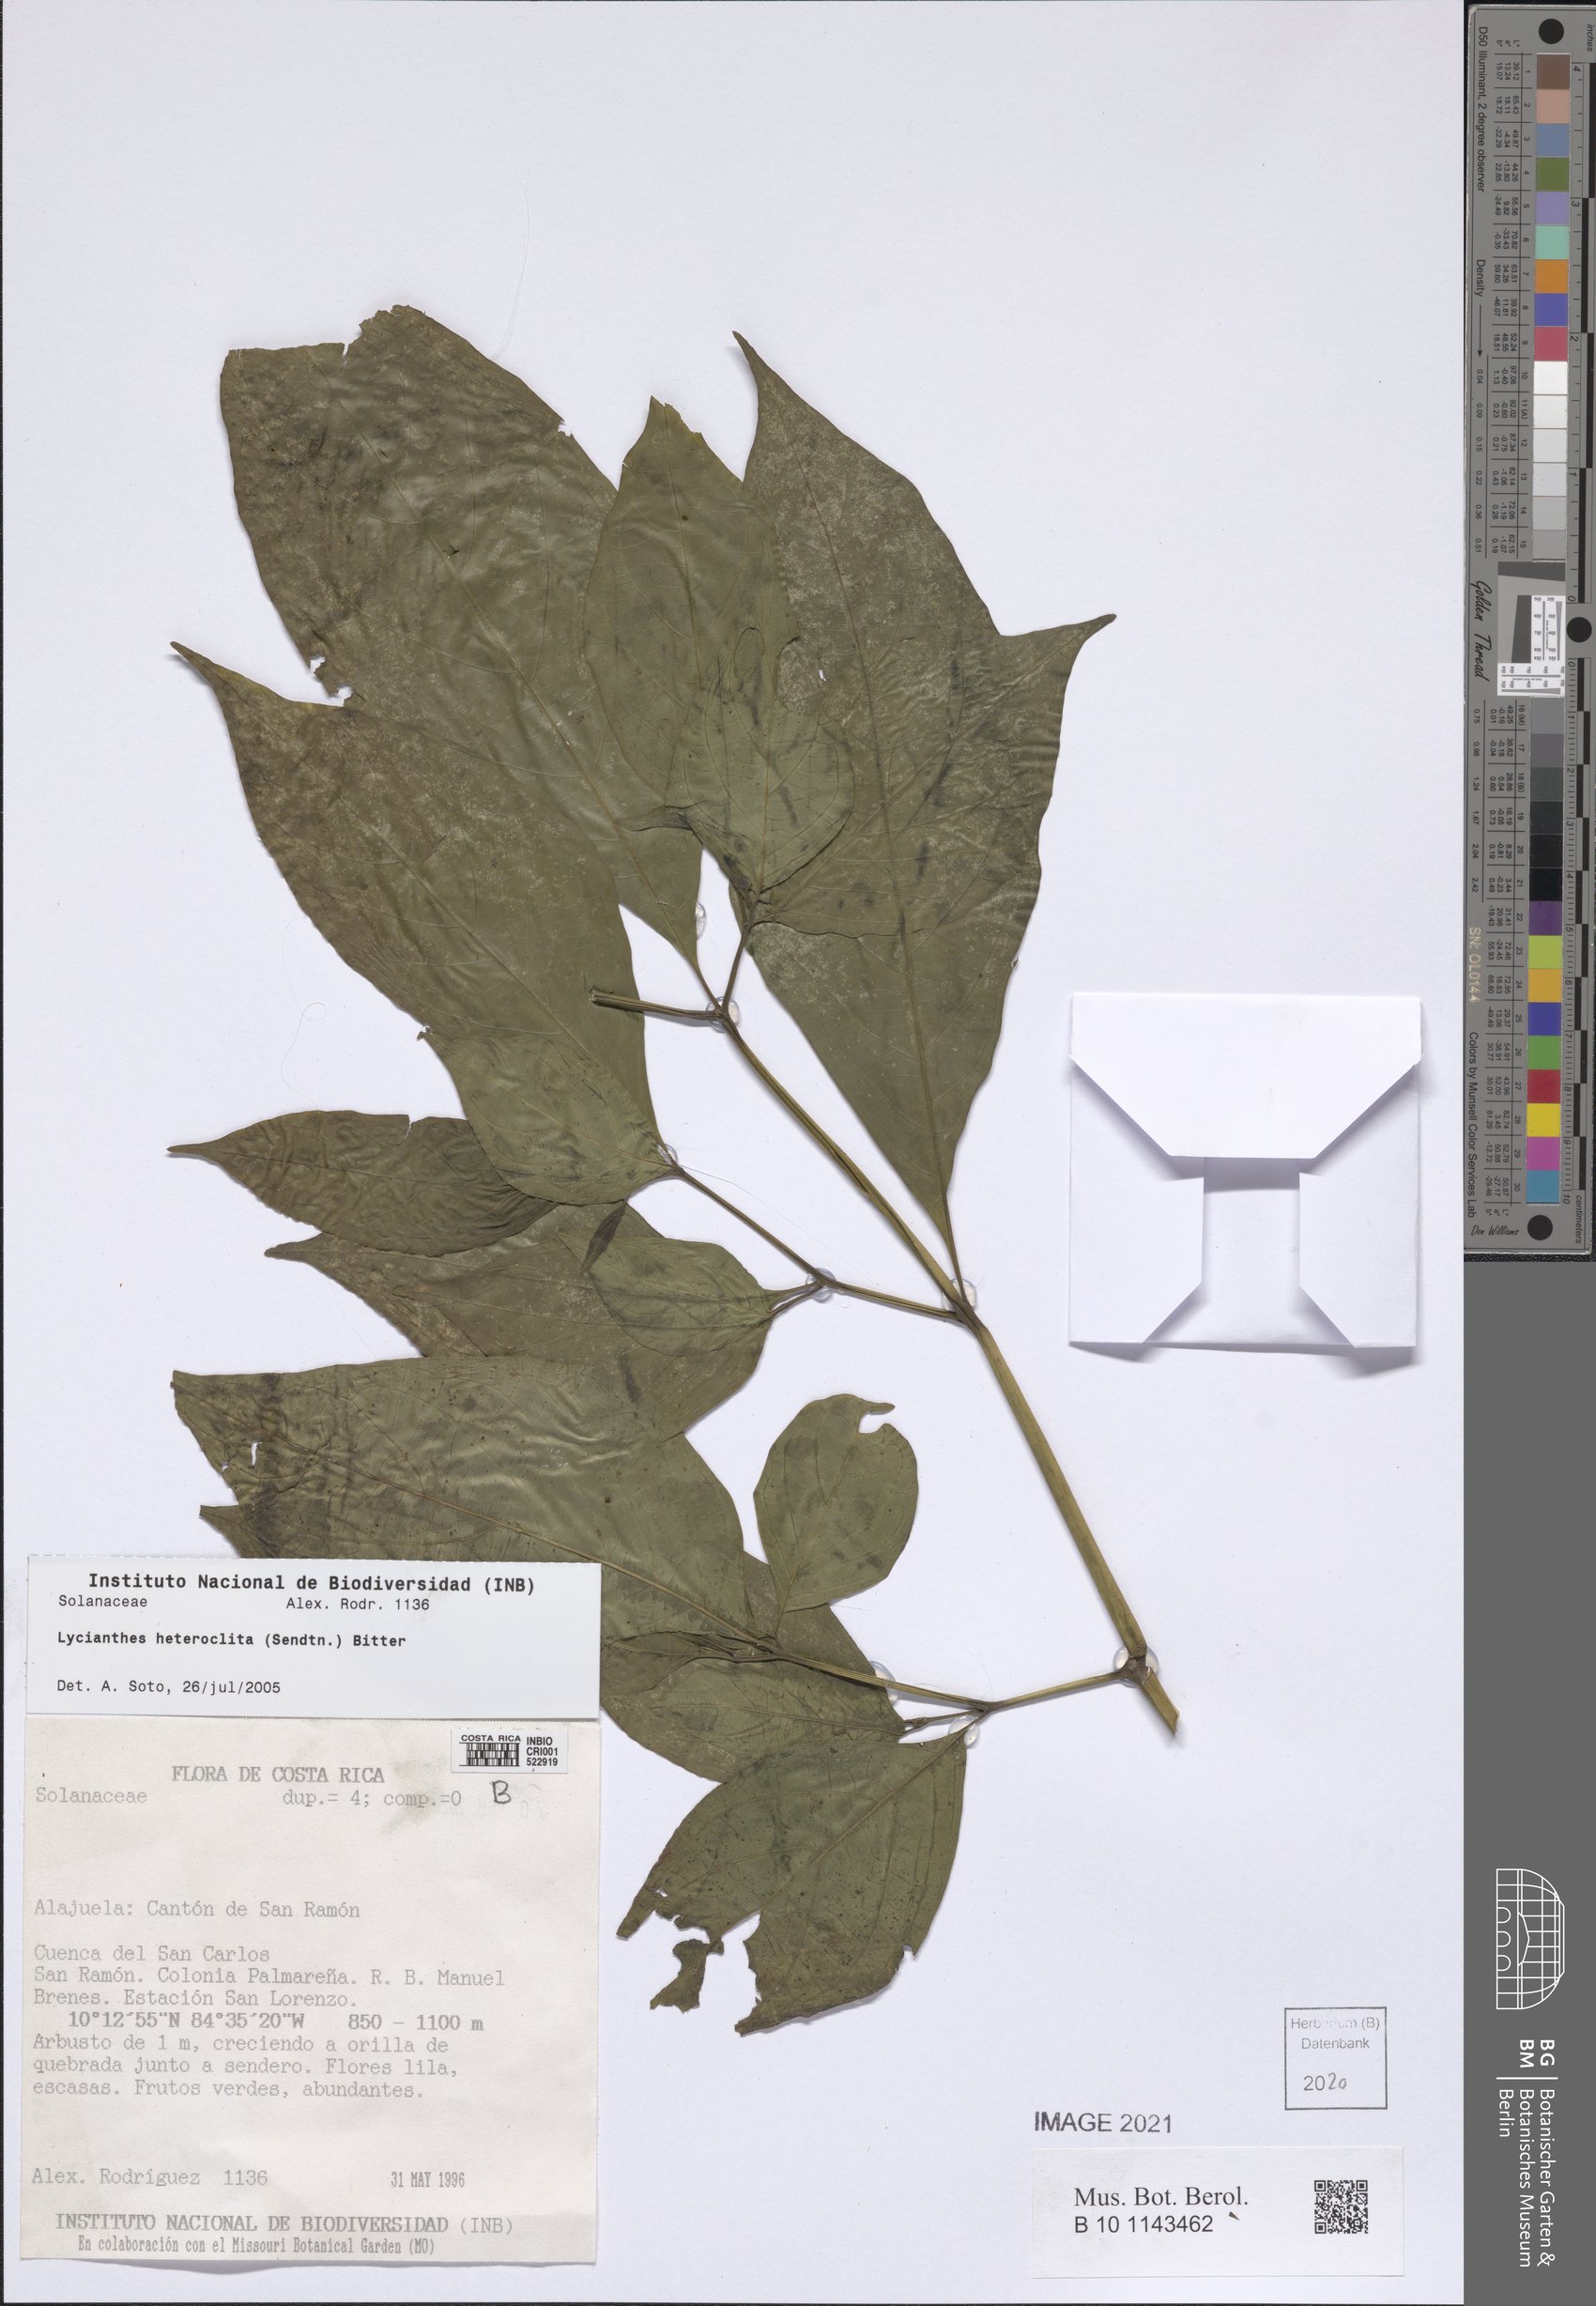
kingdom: Plantae
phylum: Tracheophyta
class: Magnoliopsida
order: Solanales
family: Solanaceae
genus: Lycianthes
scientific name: Lycianthes heteroclita
